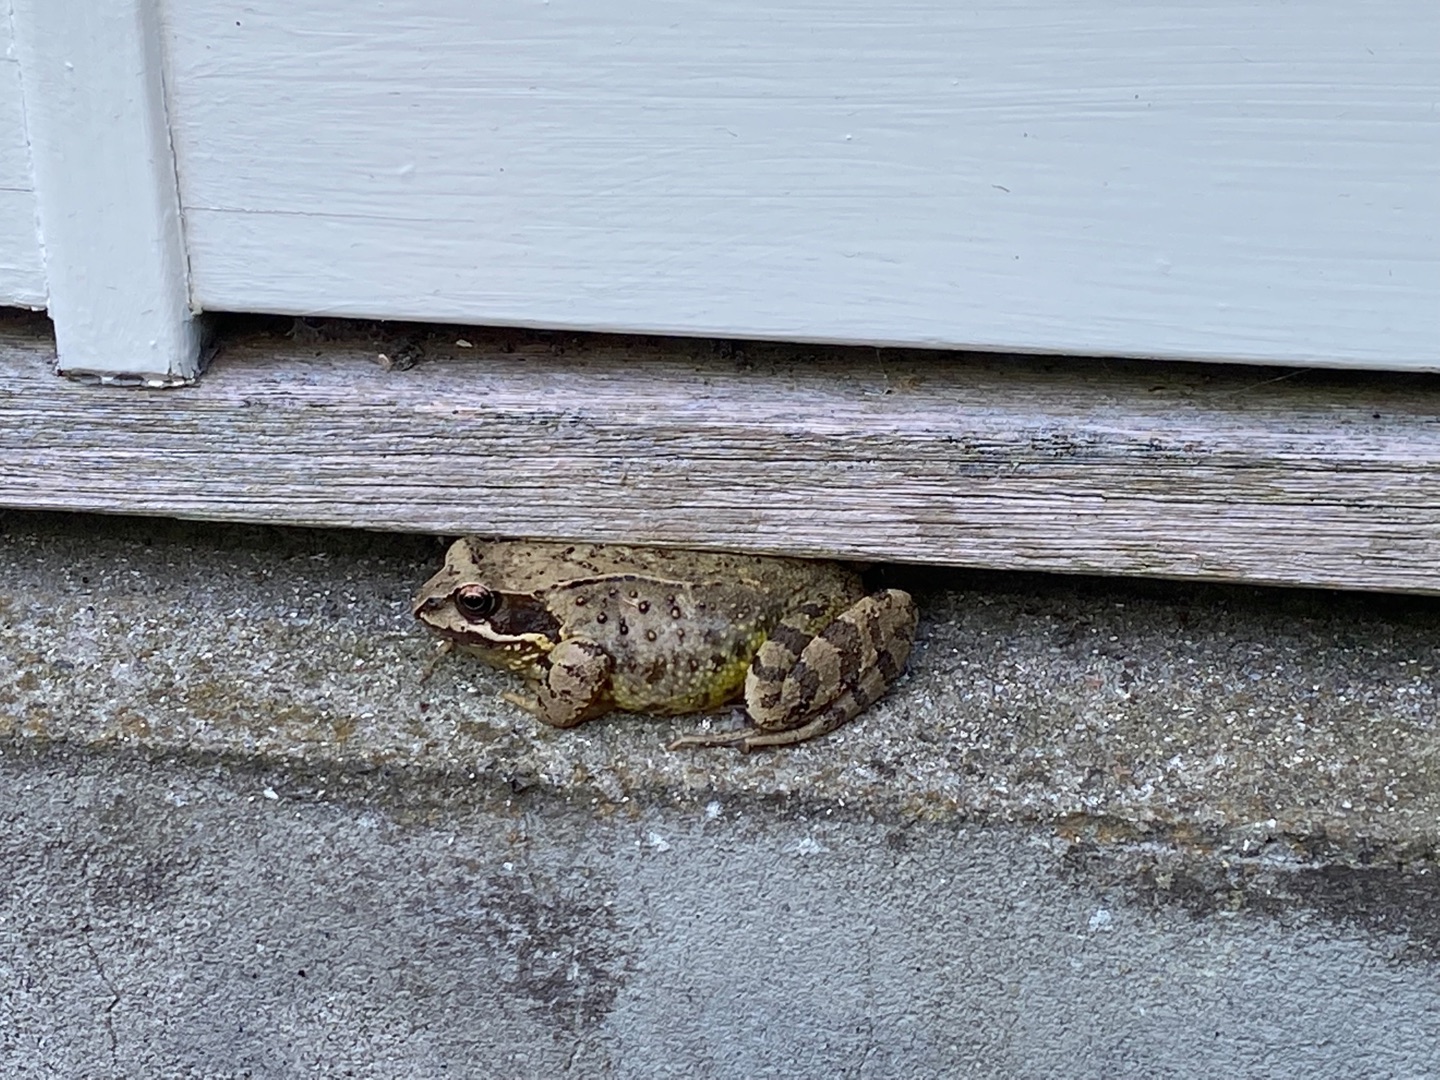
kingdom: Animalia
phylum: Chordata
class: Amphibia
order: Anura
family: Ranidae
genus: Rana
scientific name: Rana temporaria
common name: Butsnudet frø
